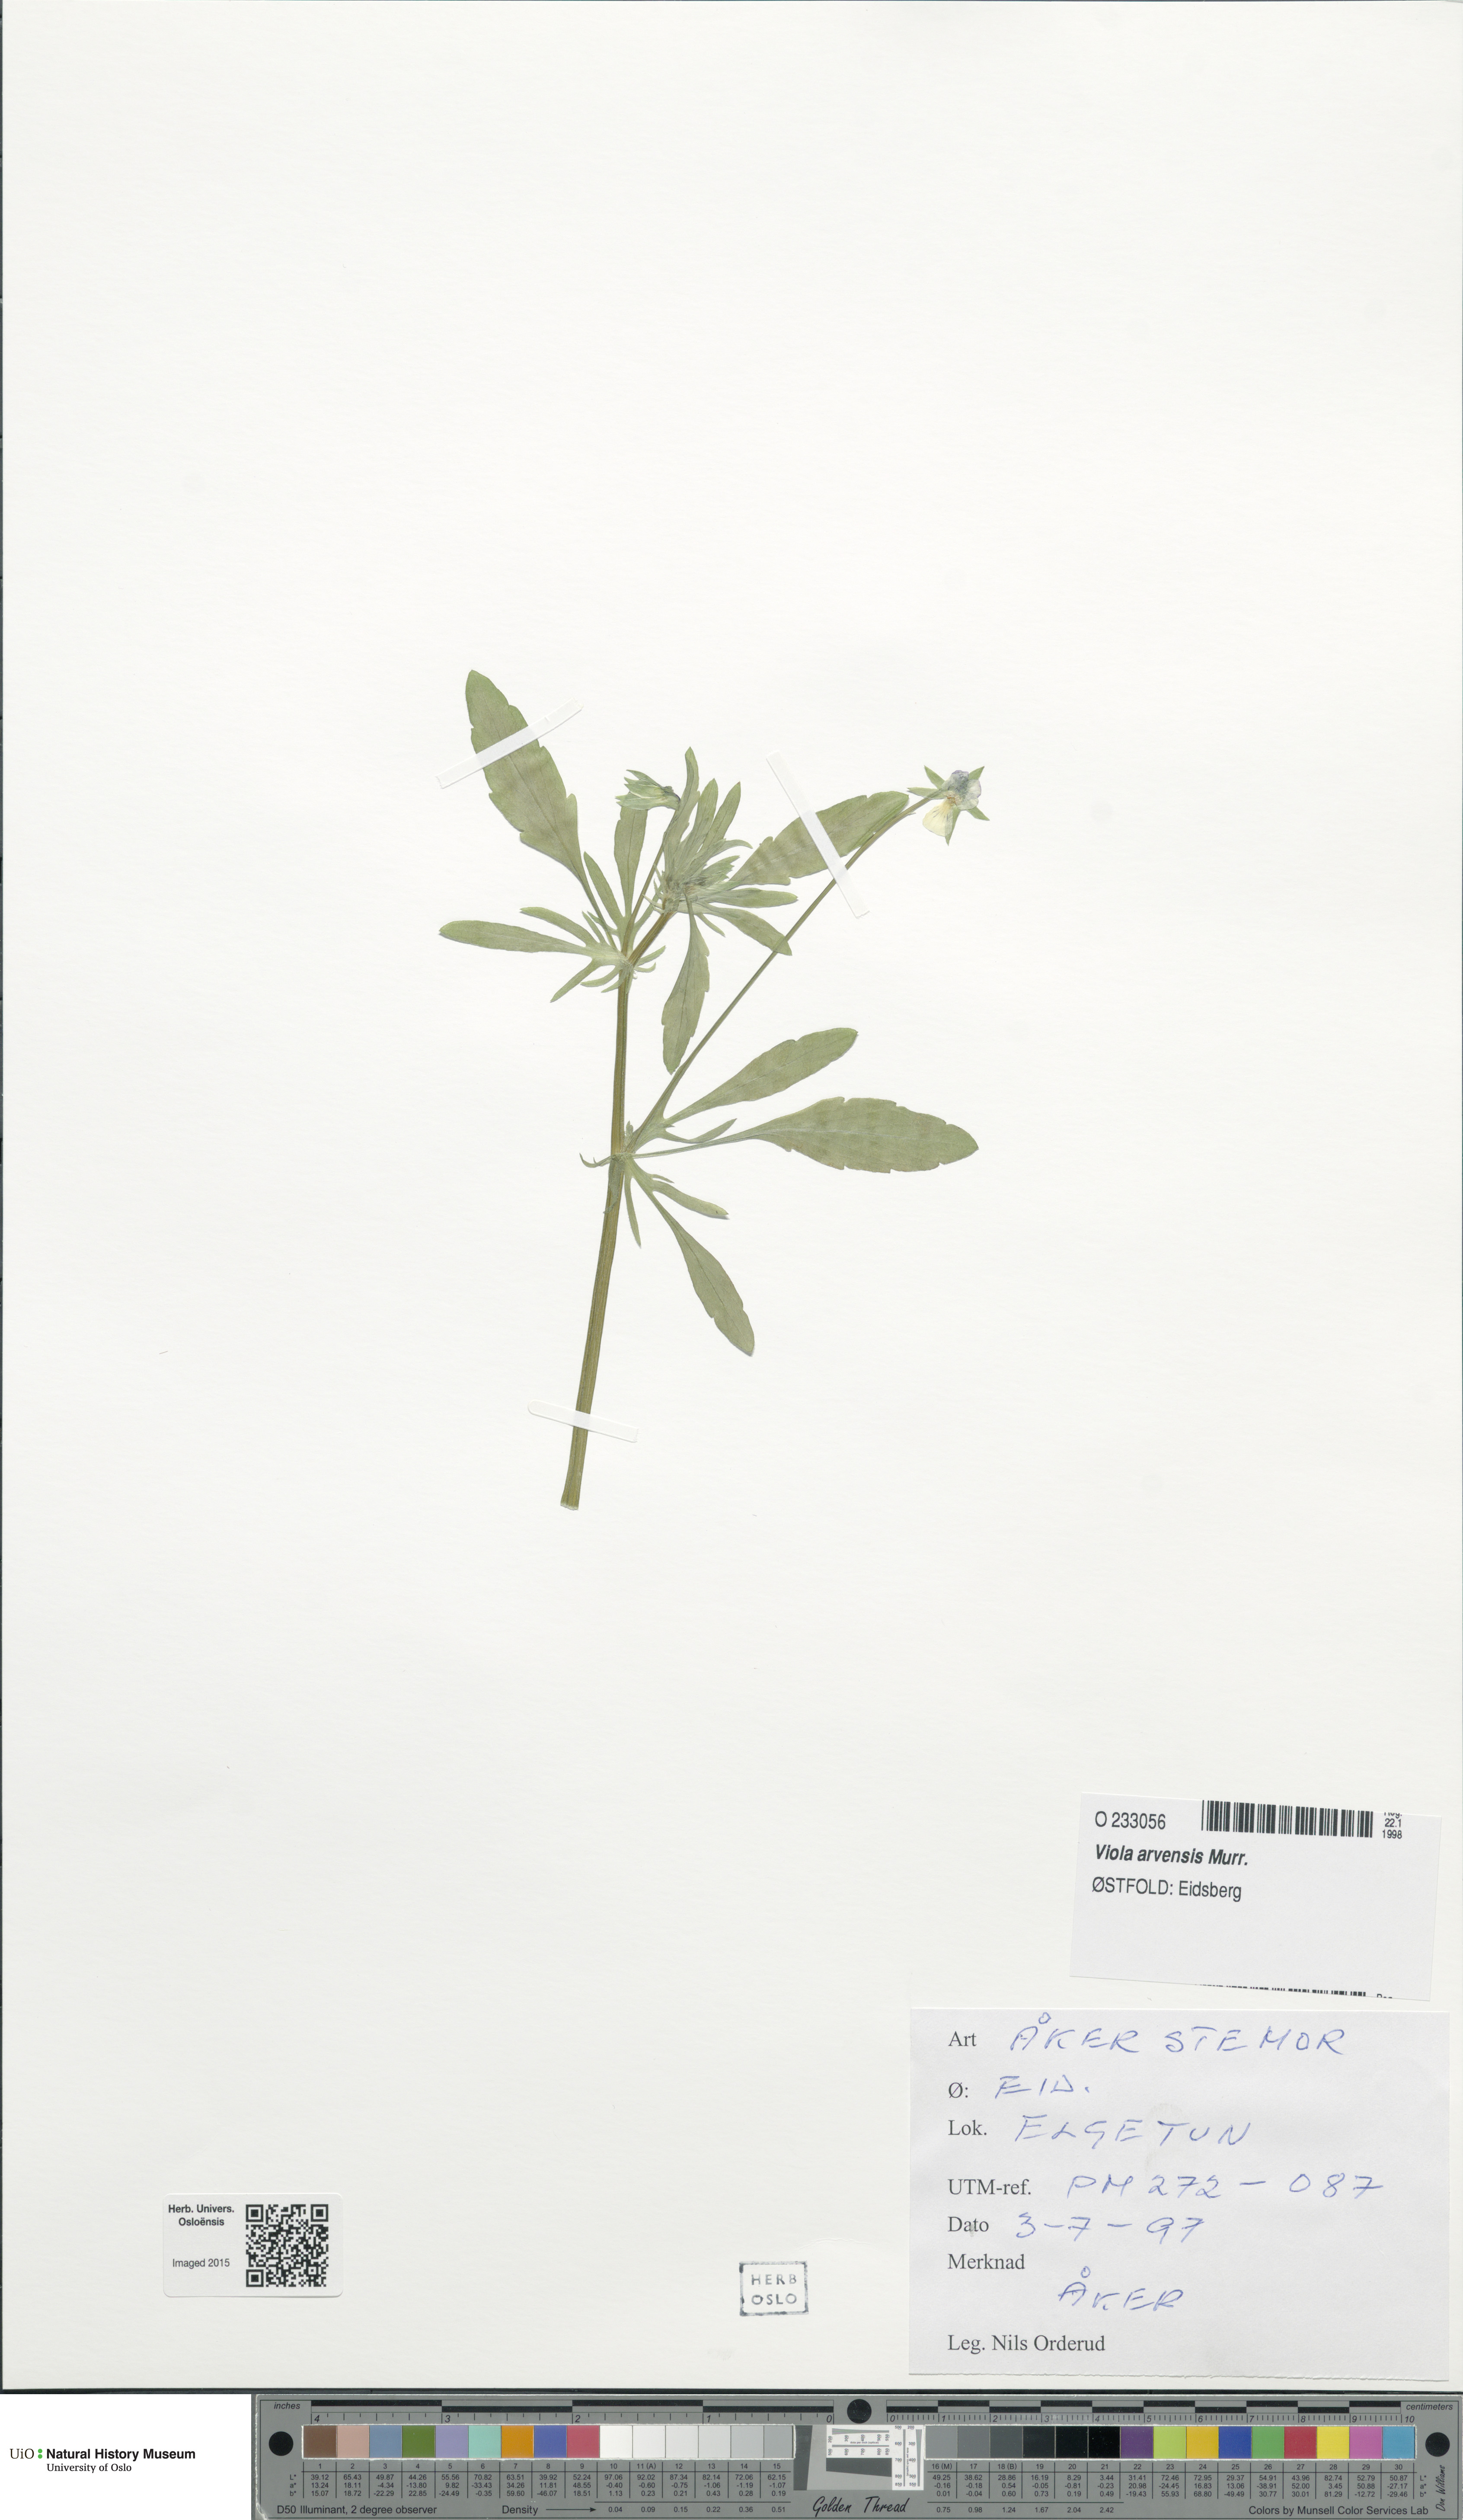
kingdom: Plantae
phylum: Tracheophyta
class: Magnoliopsida
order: Malpighiales
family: Violaceae
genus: Viola
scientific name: Viola arvensis
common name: Field pansy
